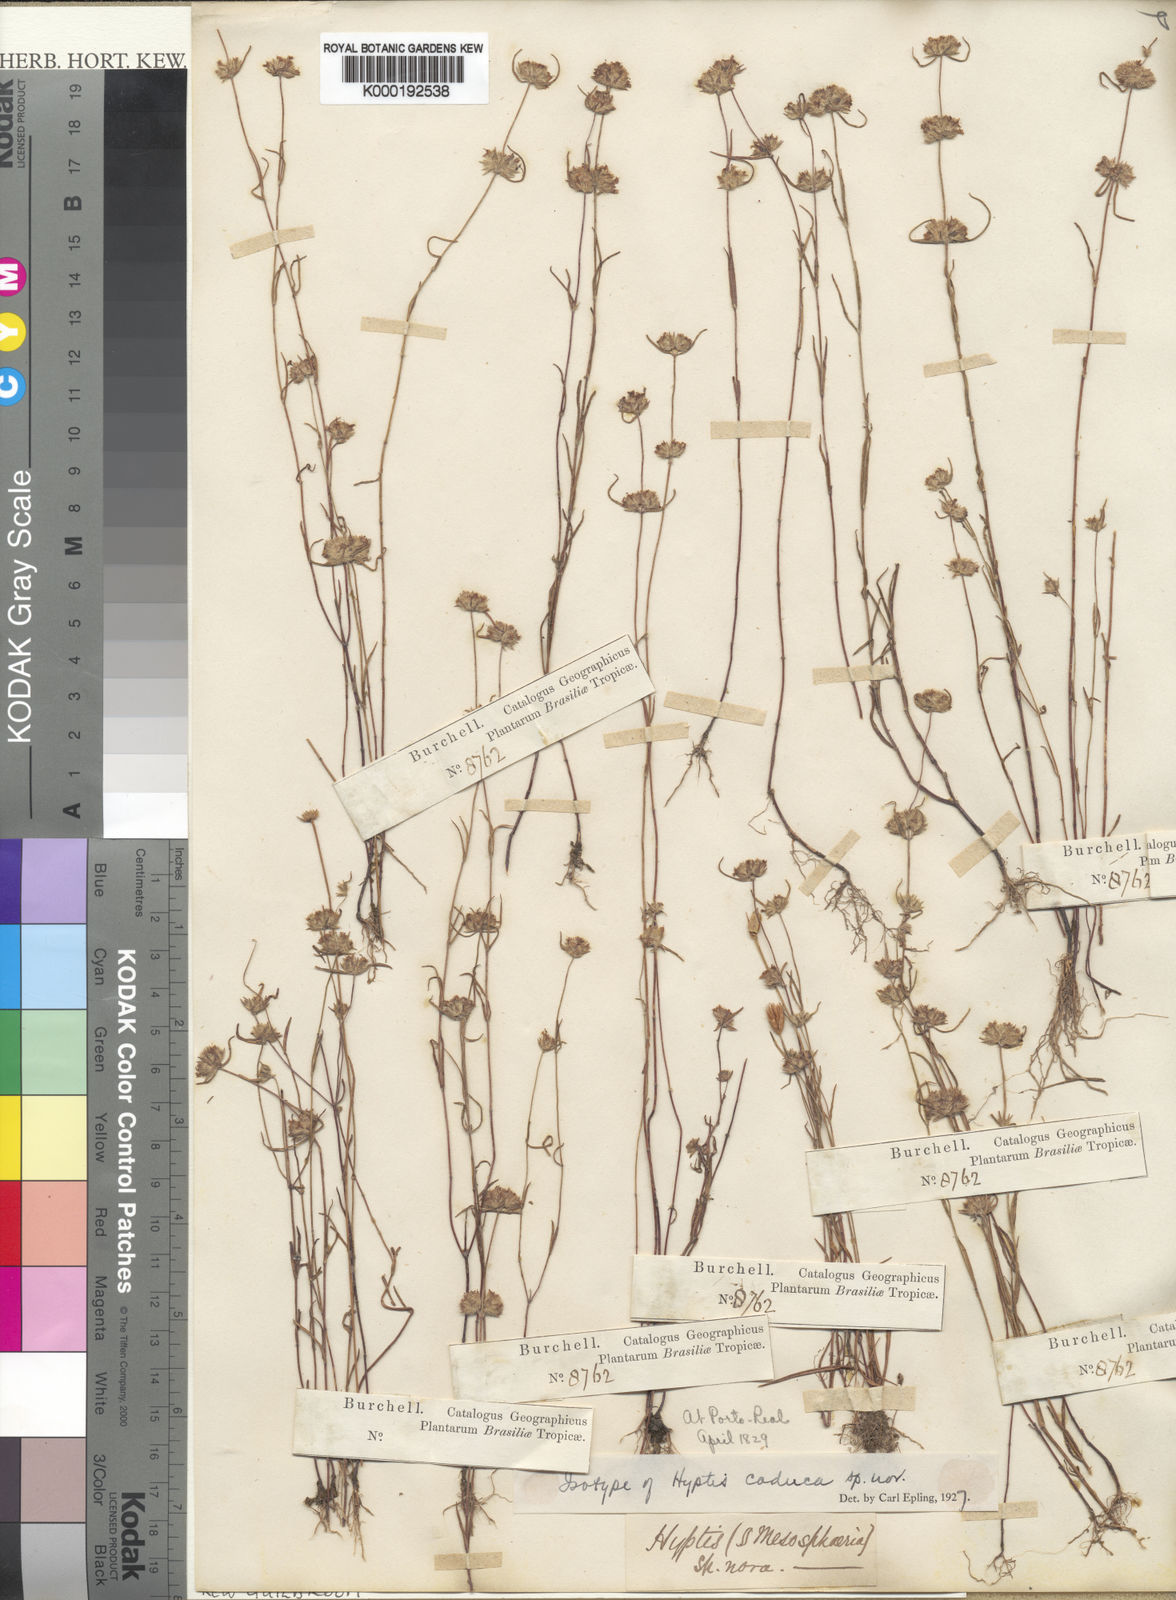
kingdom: Plantae
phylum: Tracheophyta
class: Magnoliopsida
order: Lamiales
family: Lamiaceae
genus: Hyptis
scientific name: Hyptis
